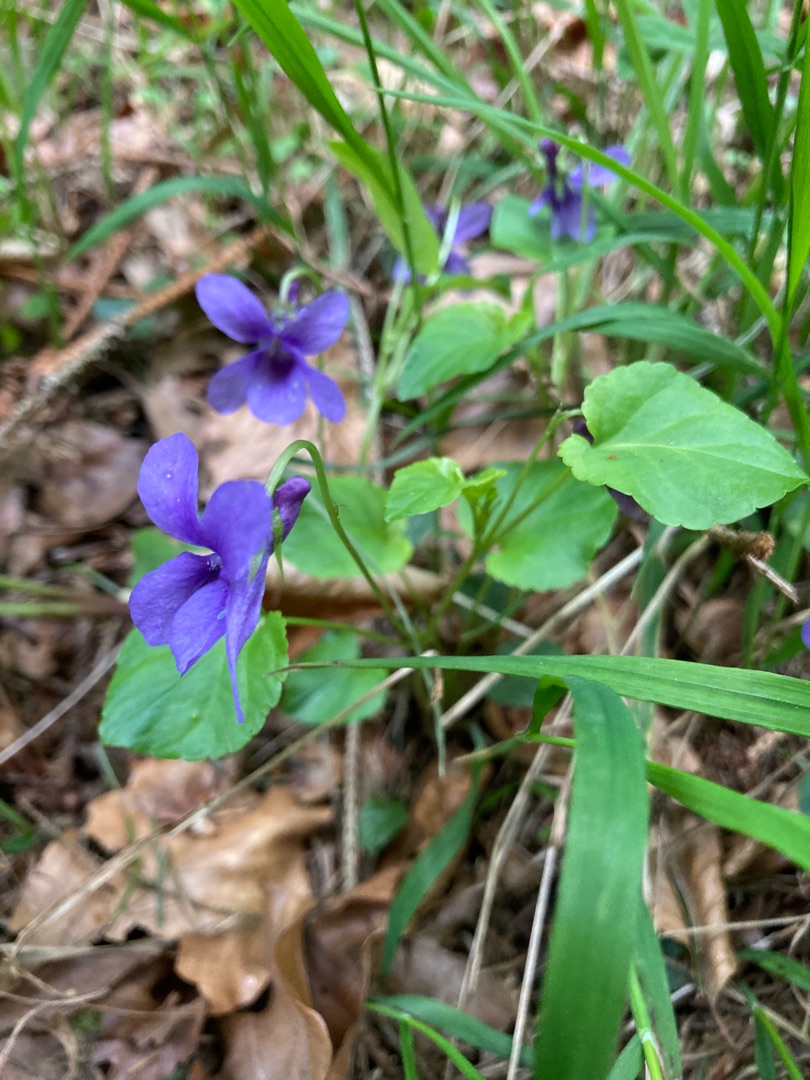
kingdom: Plantae
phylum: Tracheophyta
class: Magnoliopsida
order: Malpighiales
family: Violaceae
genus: Viola
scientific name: Viola reichenbachiana
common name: Skov-viol
